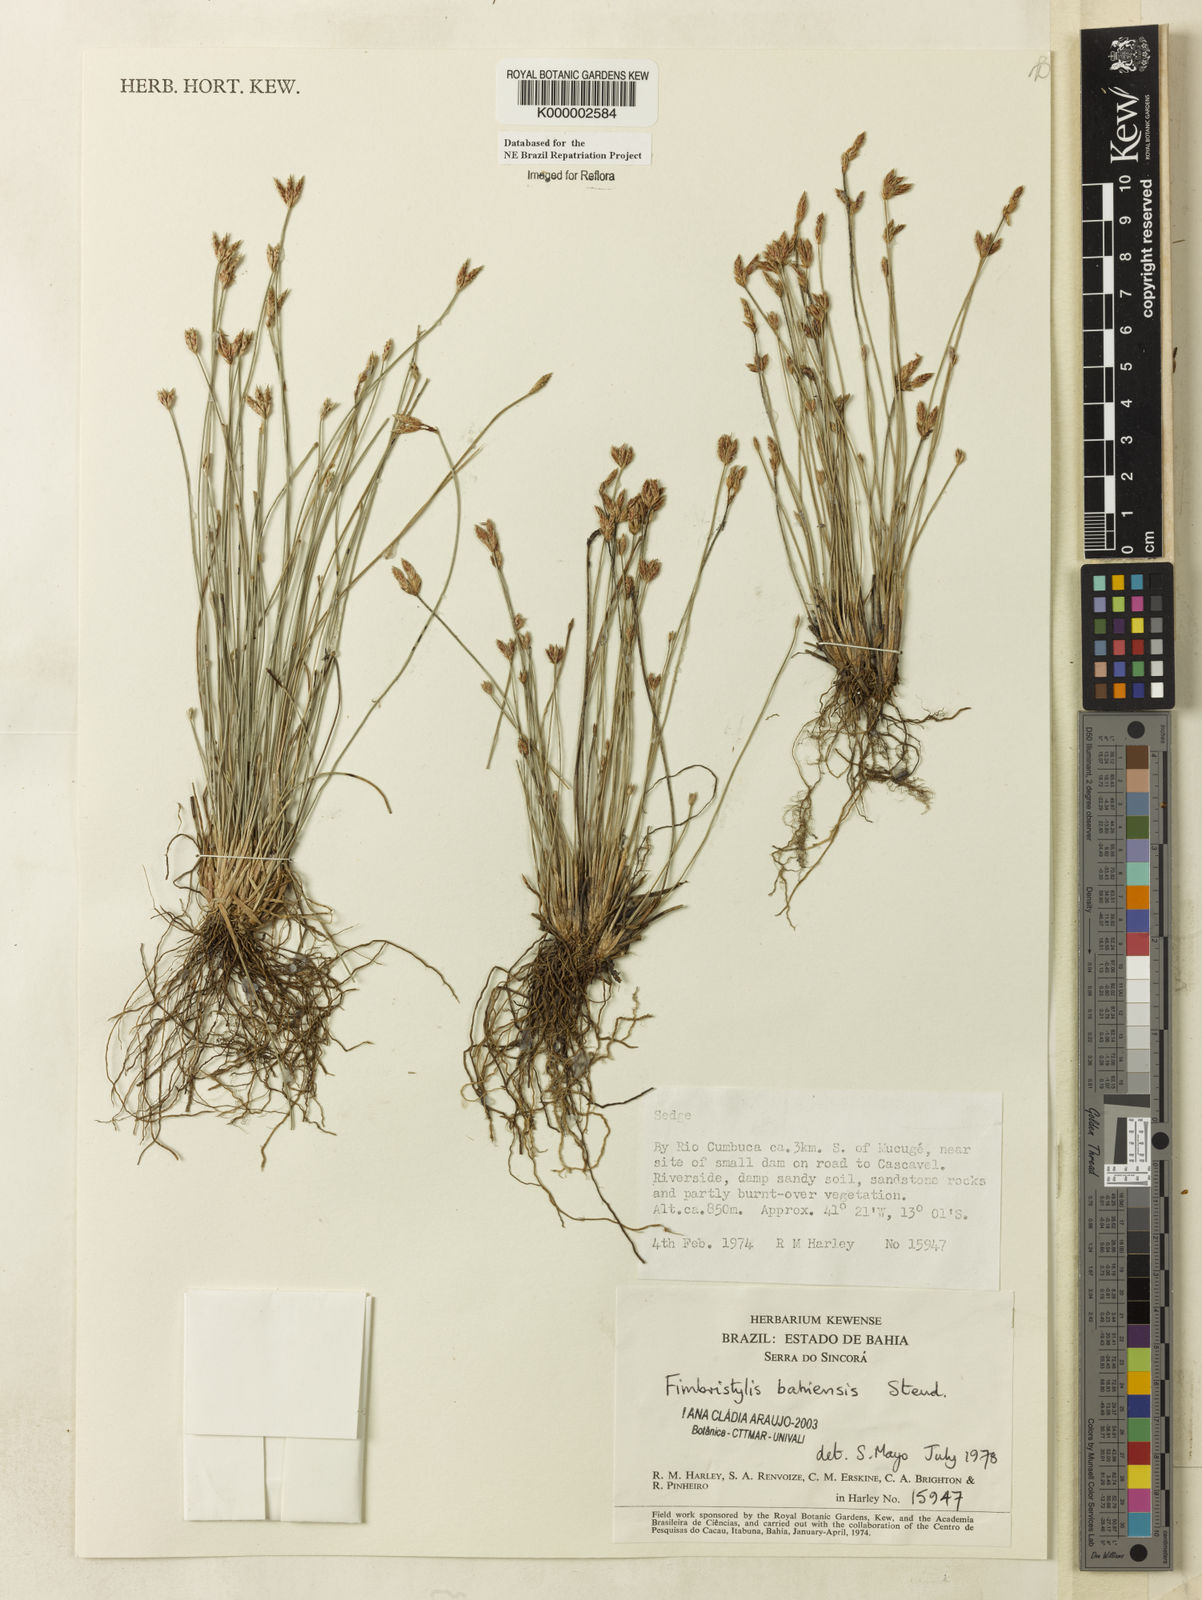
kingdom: Plantae
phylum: Tracheophyta
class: Liliopsida
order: Poales
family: Cyperaceae
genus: Fimbristylis
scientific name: Fimbristylis bahiensis
